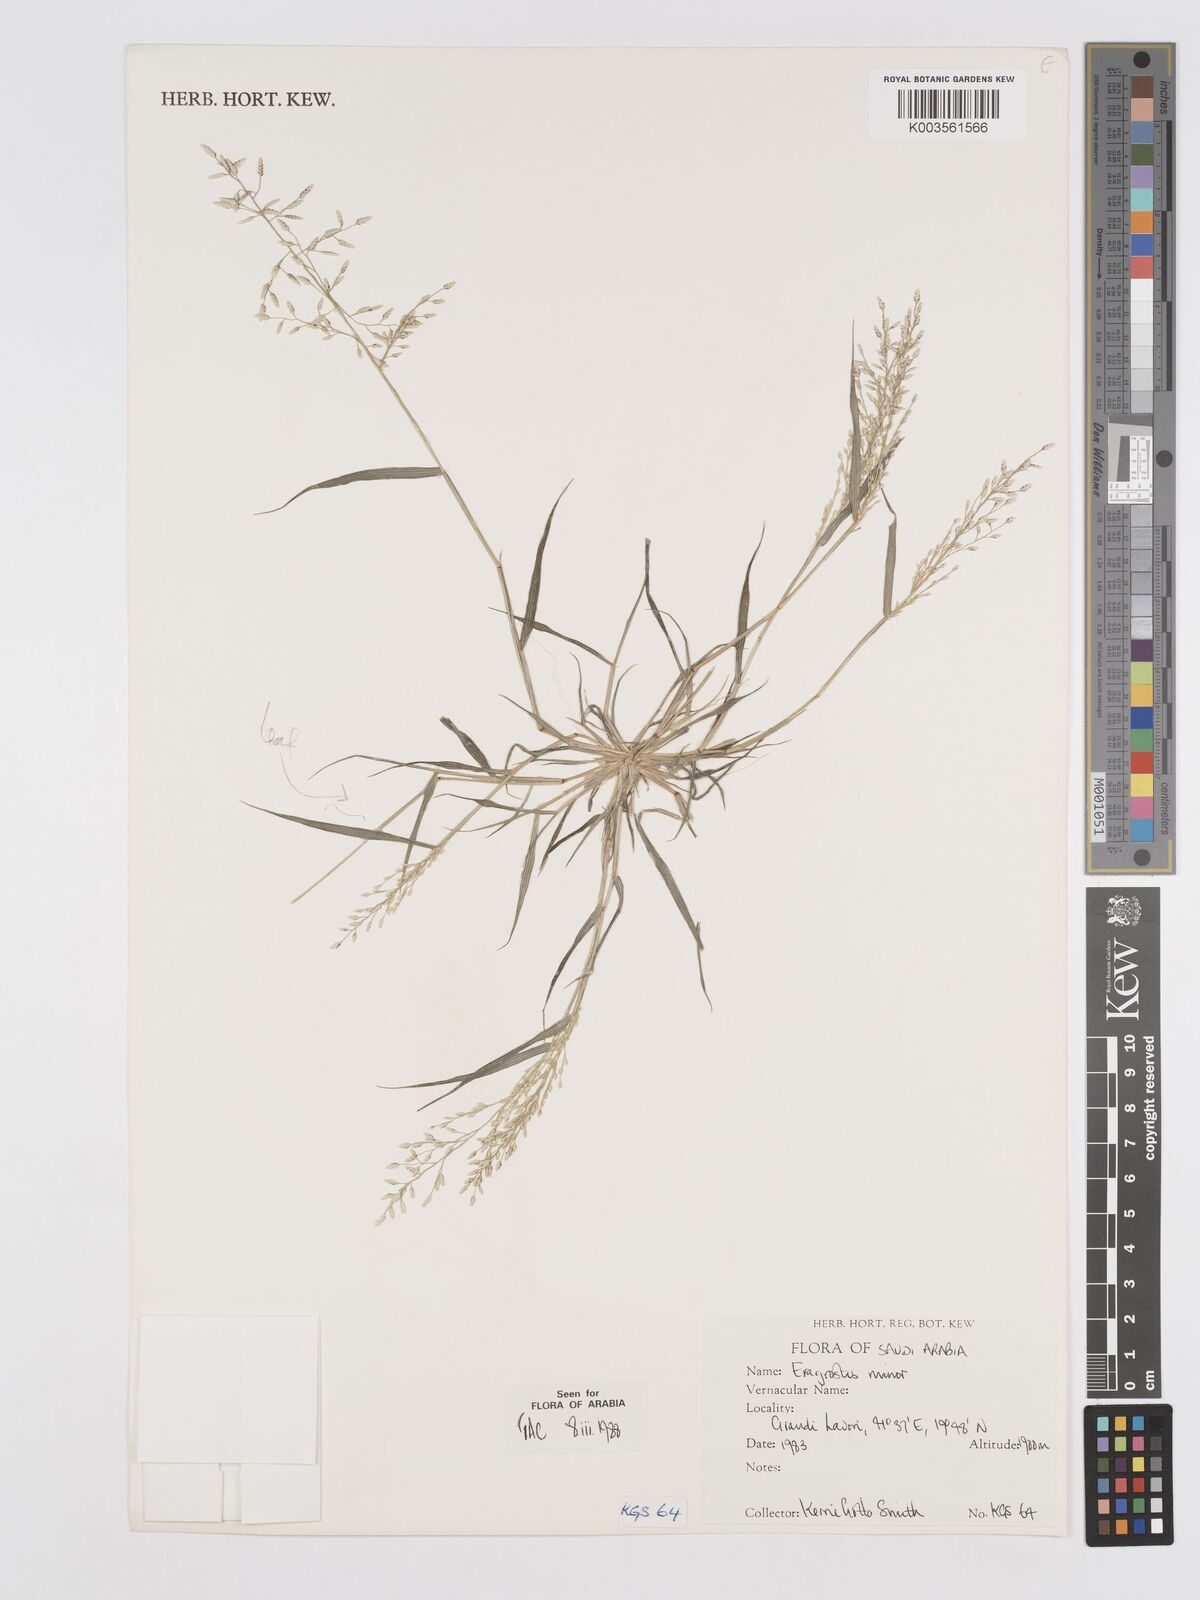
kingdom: Plantae
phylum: Tracheophyta
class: Liliopsida
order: Poales
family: Poaceae
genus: Eragrostis
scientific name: Eragrostis minor
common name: Small love-grass
